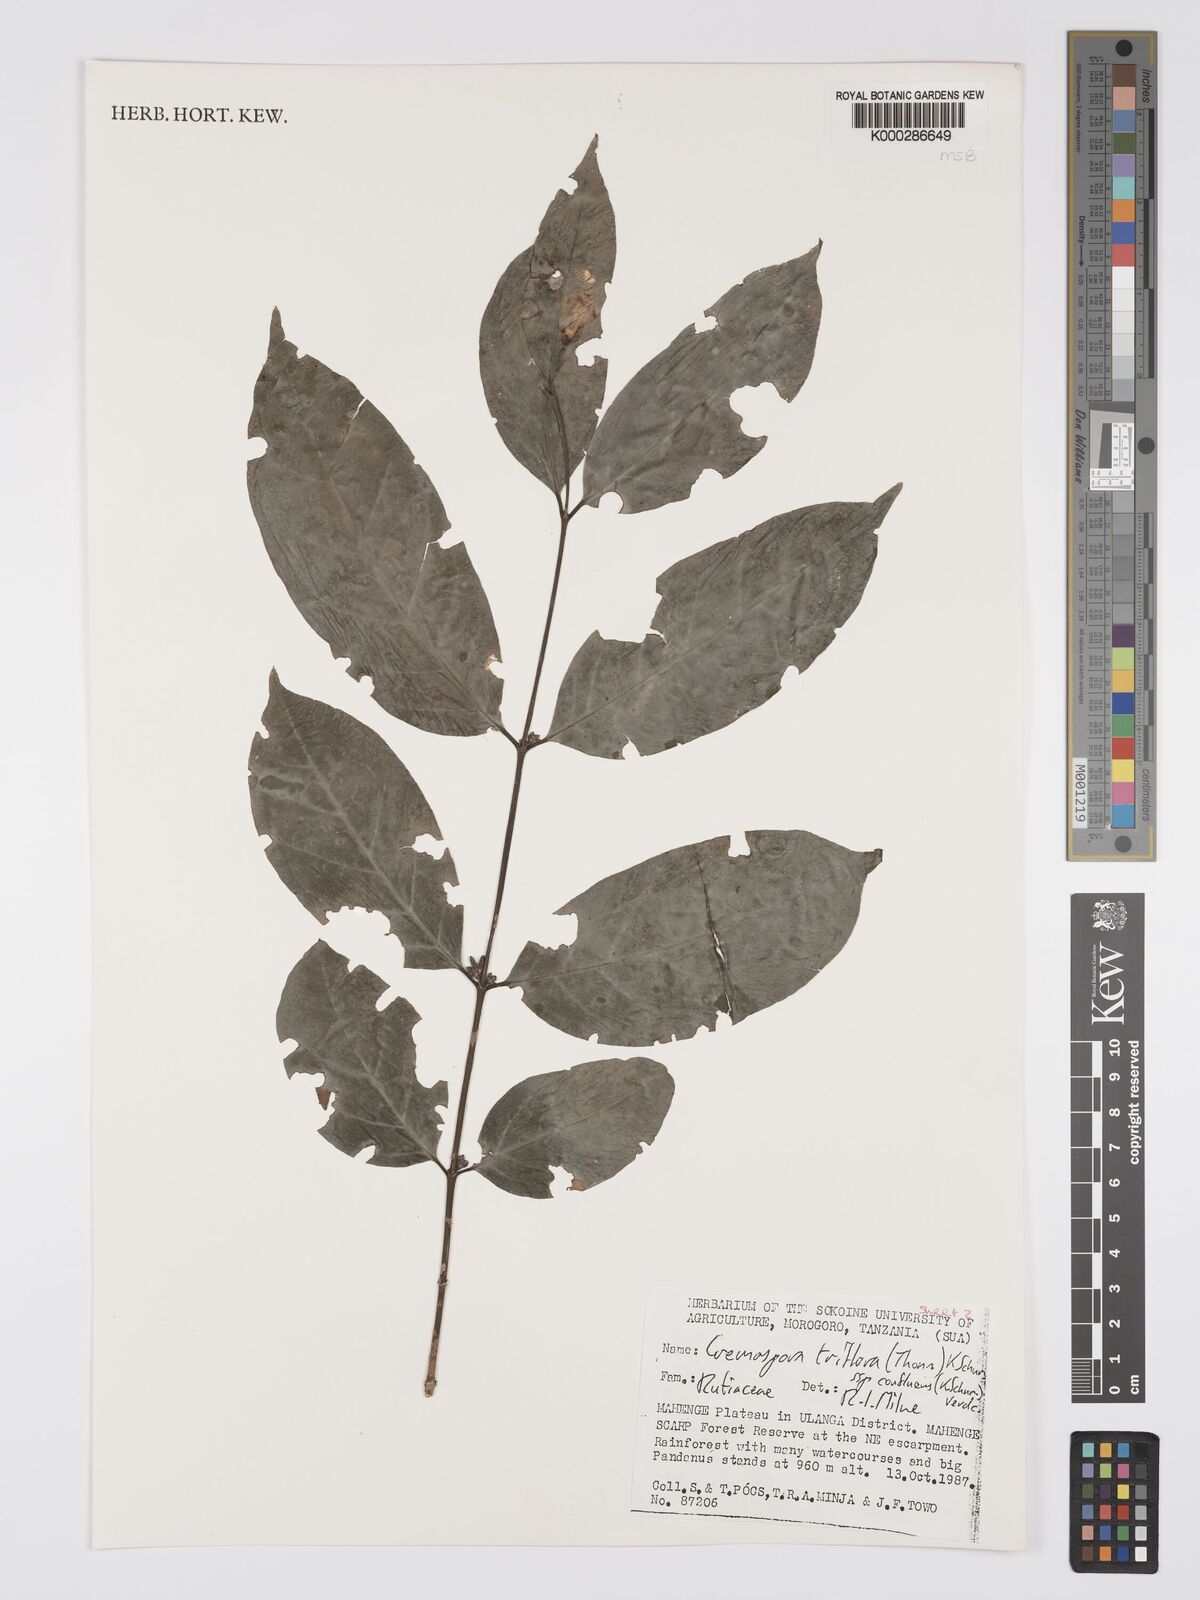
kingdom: Plantae
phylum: Tracheophyta
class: Magnoliopsida
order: Gentianales
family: Rubiaceae
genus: Cremaspora
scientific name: Cremaspora triflora
